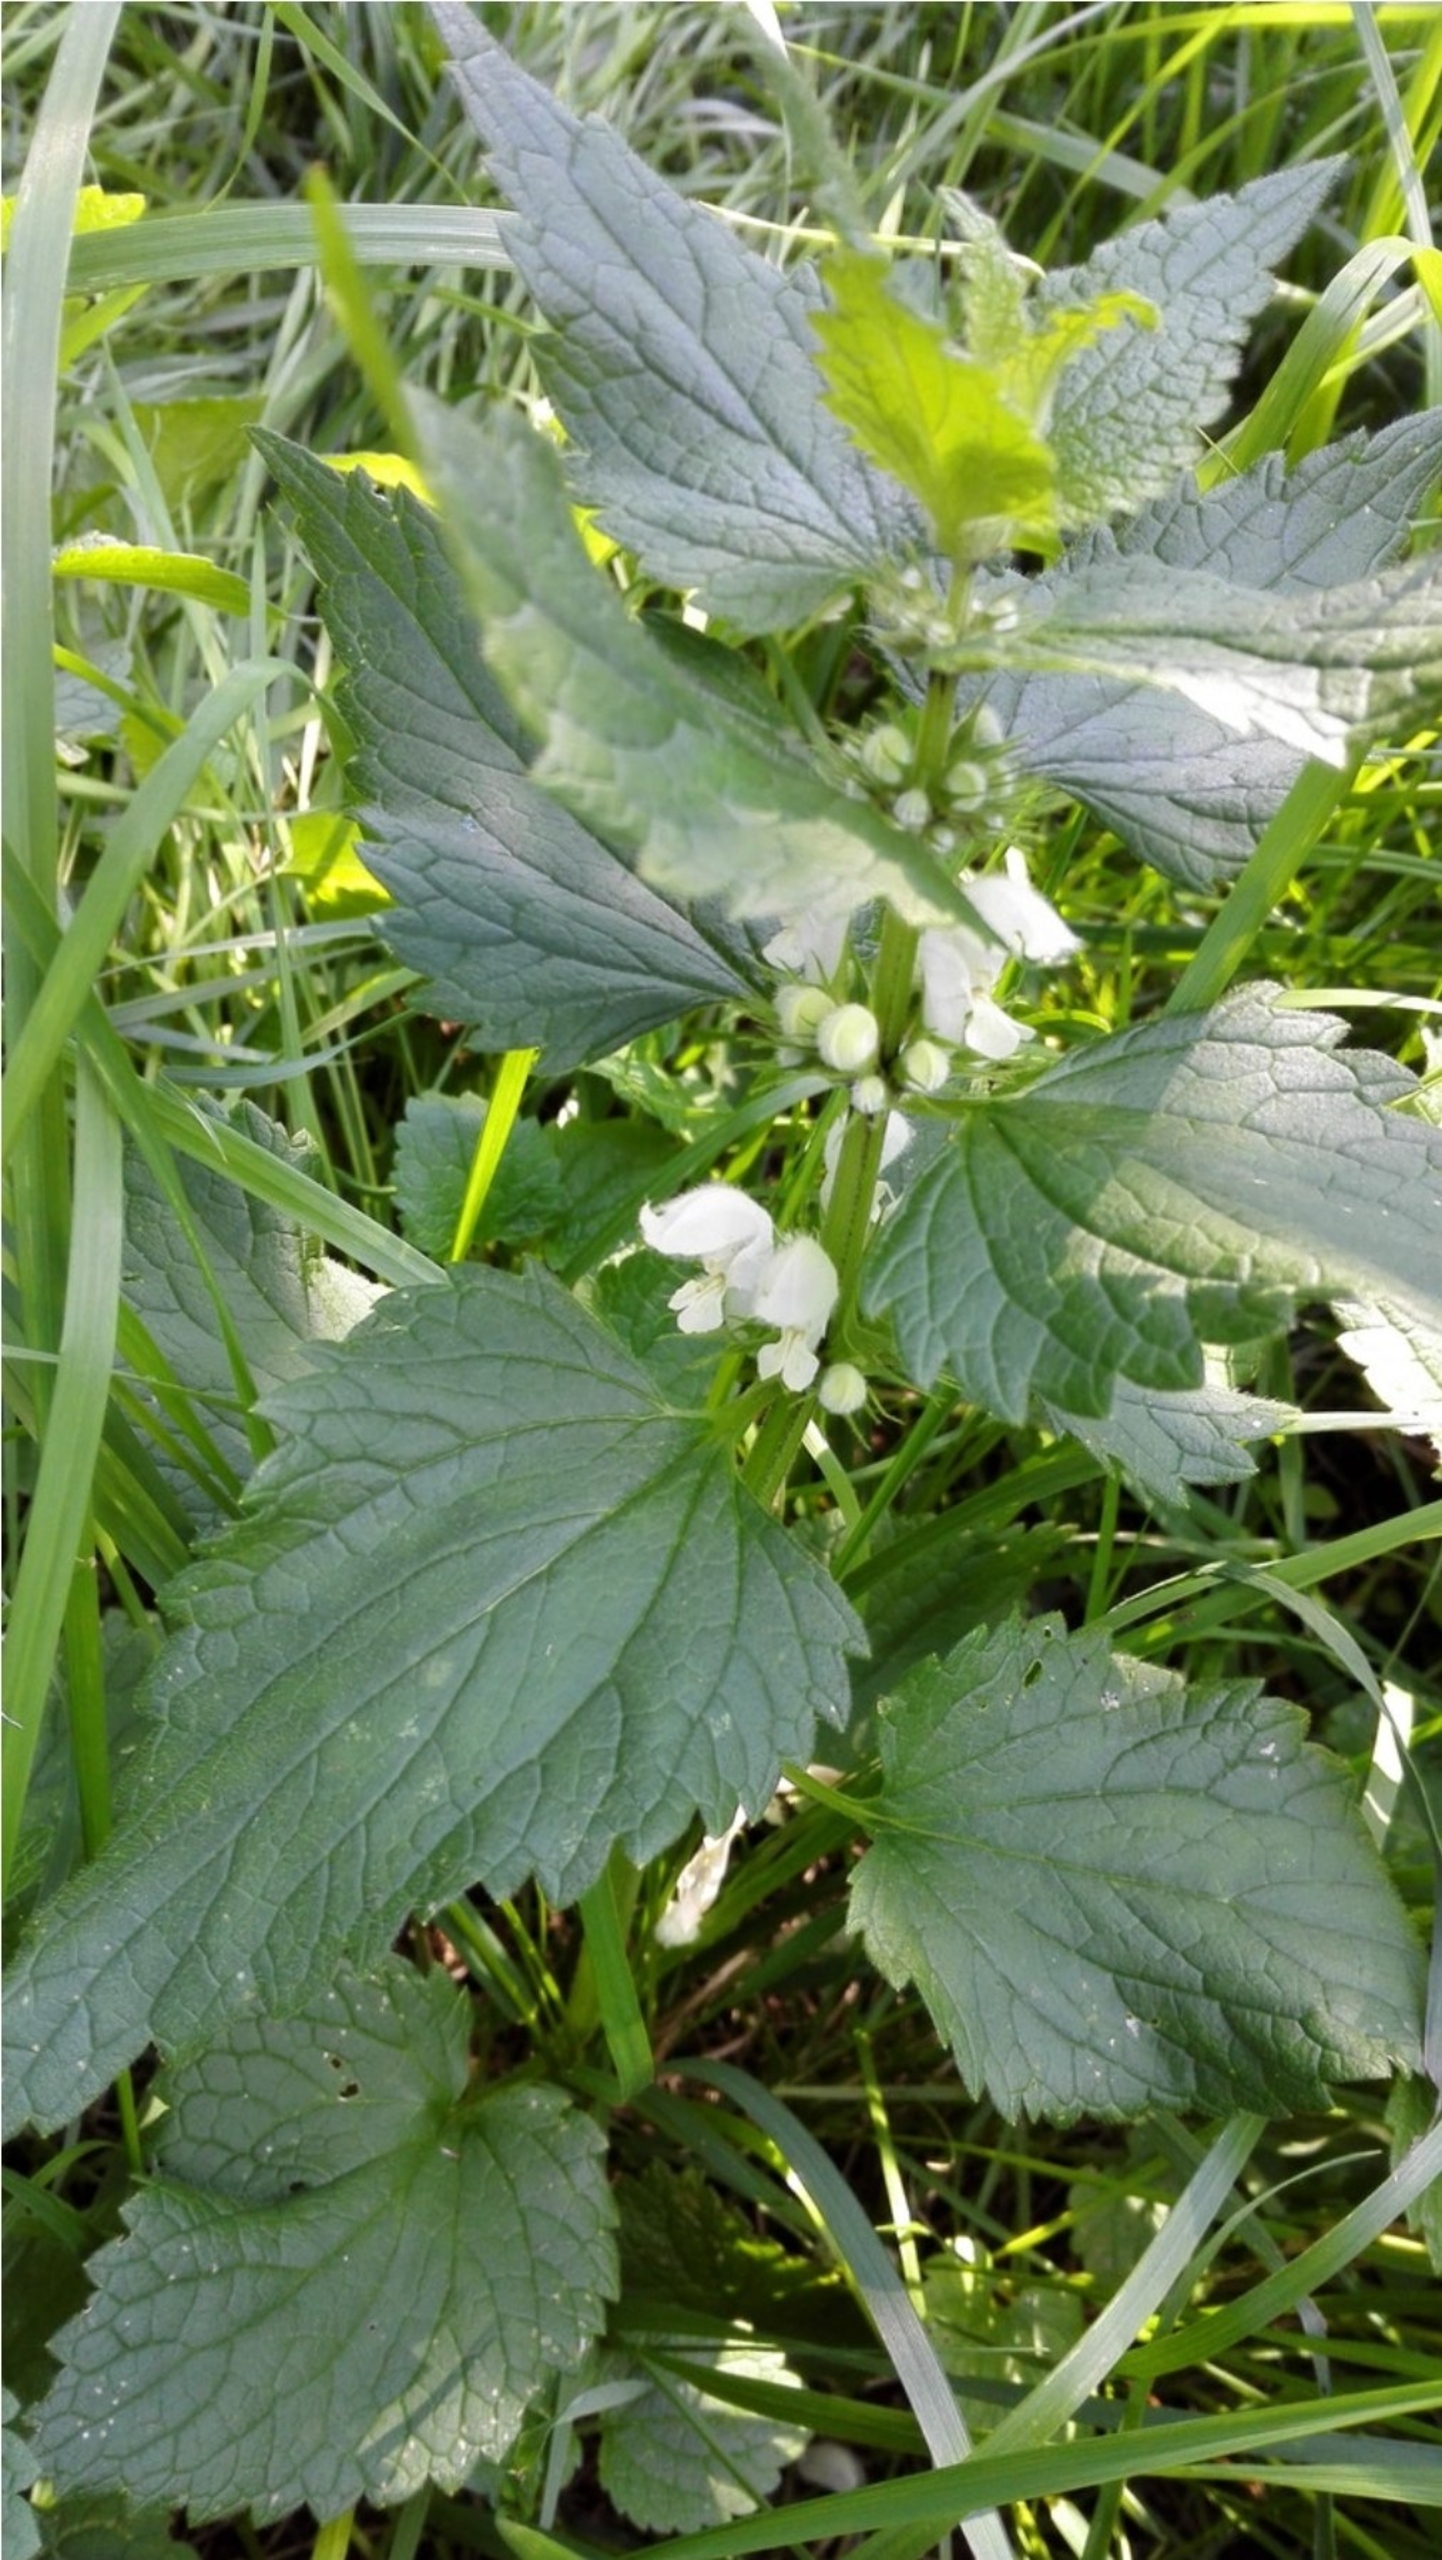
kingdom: Plantae
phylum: Tracheophyta
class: Magnoliopsida
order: Lamiales
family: Lamiaceae
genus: Lamium
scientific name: Lamium album
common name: Døvnælde
